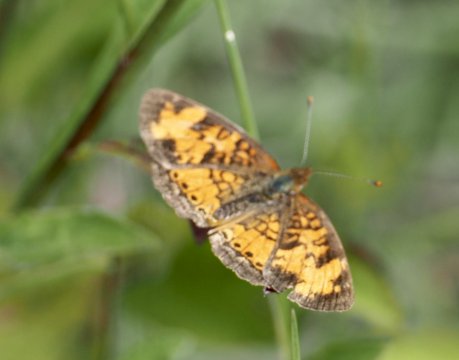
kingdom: Animalia
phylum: Arthropoda
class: Insecta
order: Lepidoptera
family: Nymphalidae
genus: Phyciodes
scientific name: Phyciodes tharos
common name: Northern Crescent
